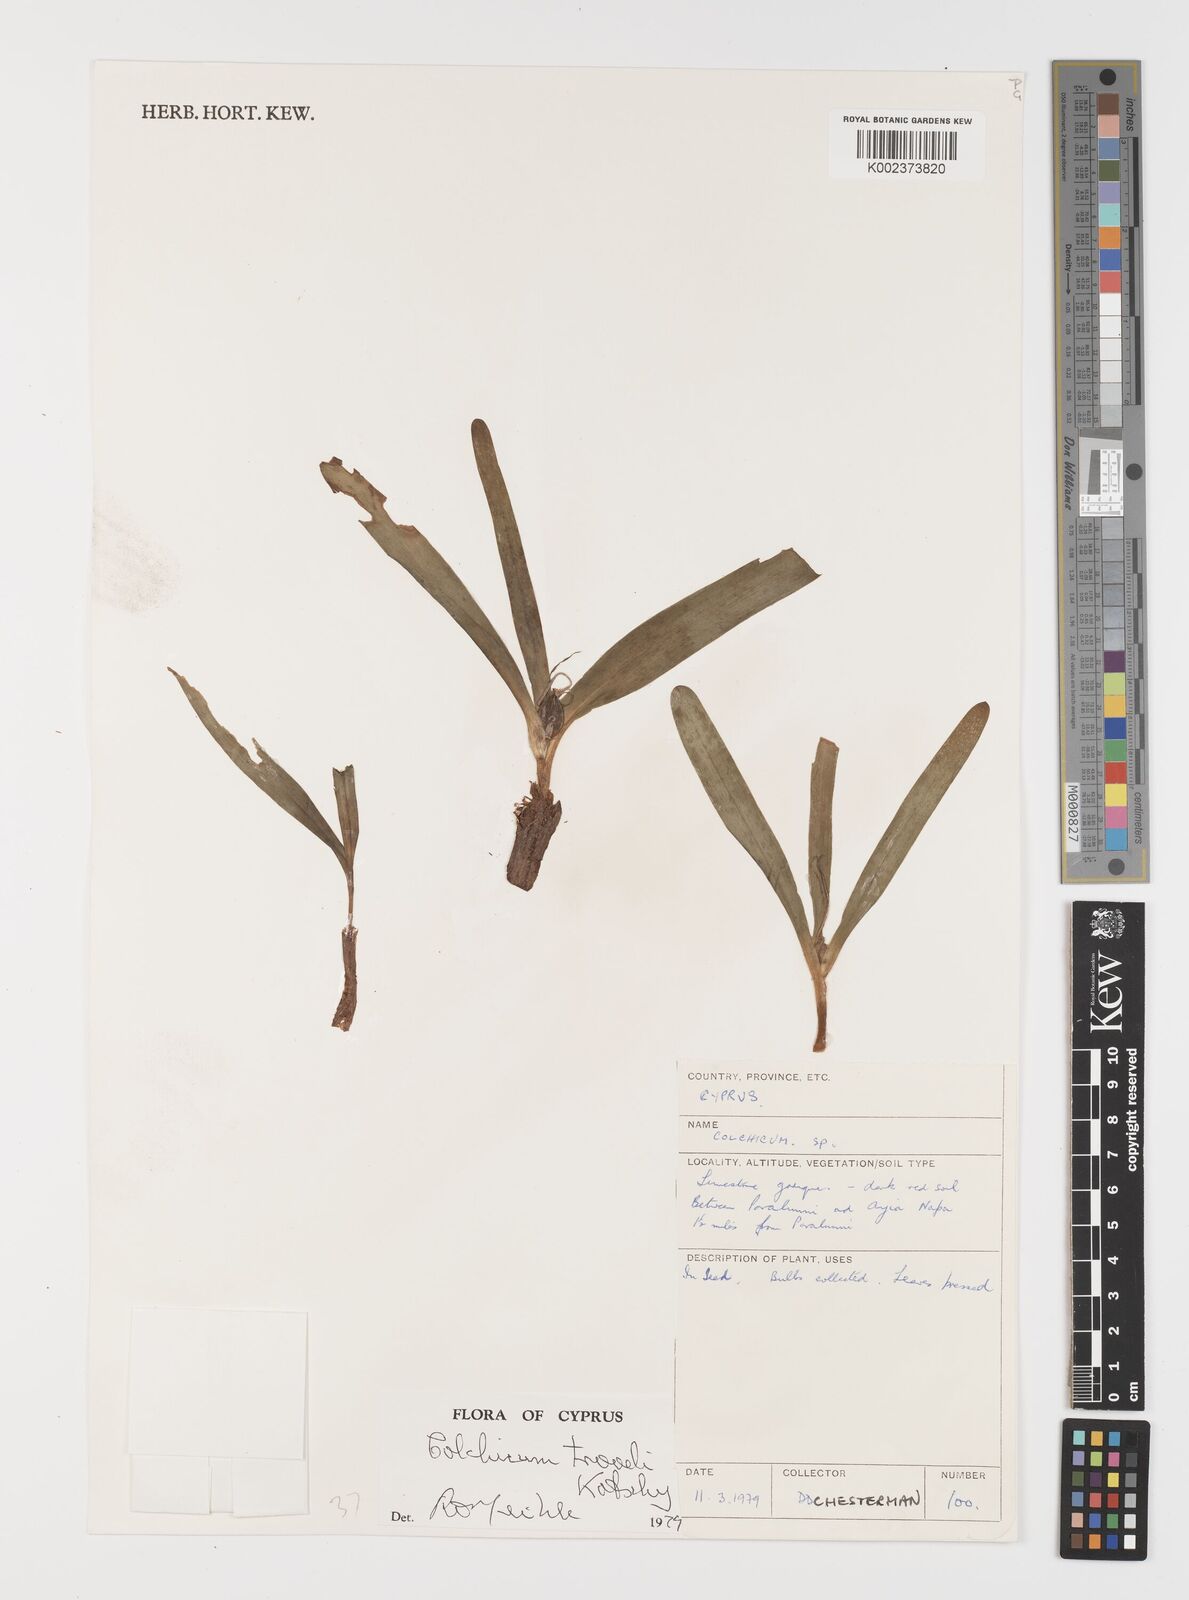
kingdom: Plantae
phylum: Tracheophyta
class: Liliopsida
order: Liliales
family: Colchicaceae
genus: Colchicum
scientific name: Colchicum troodi
